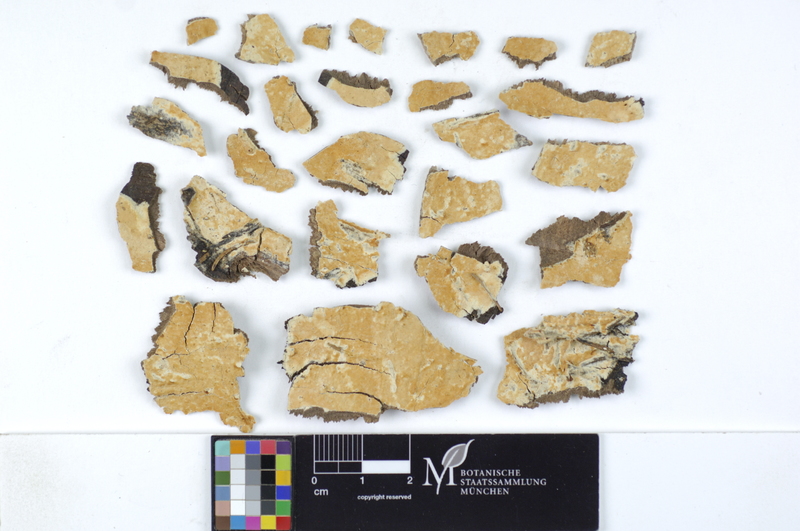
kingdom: Fungi
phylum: Basidiomycota
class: Agaricomycetes
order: Polyporales
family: Irpicaceae
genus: Crystallicutis
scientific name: Crystallicutis serpens
